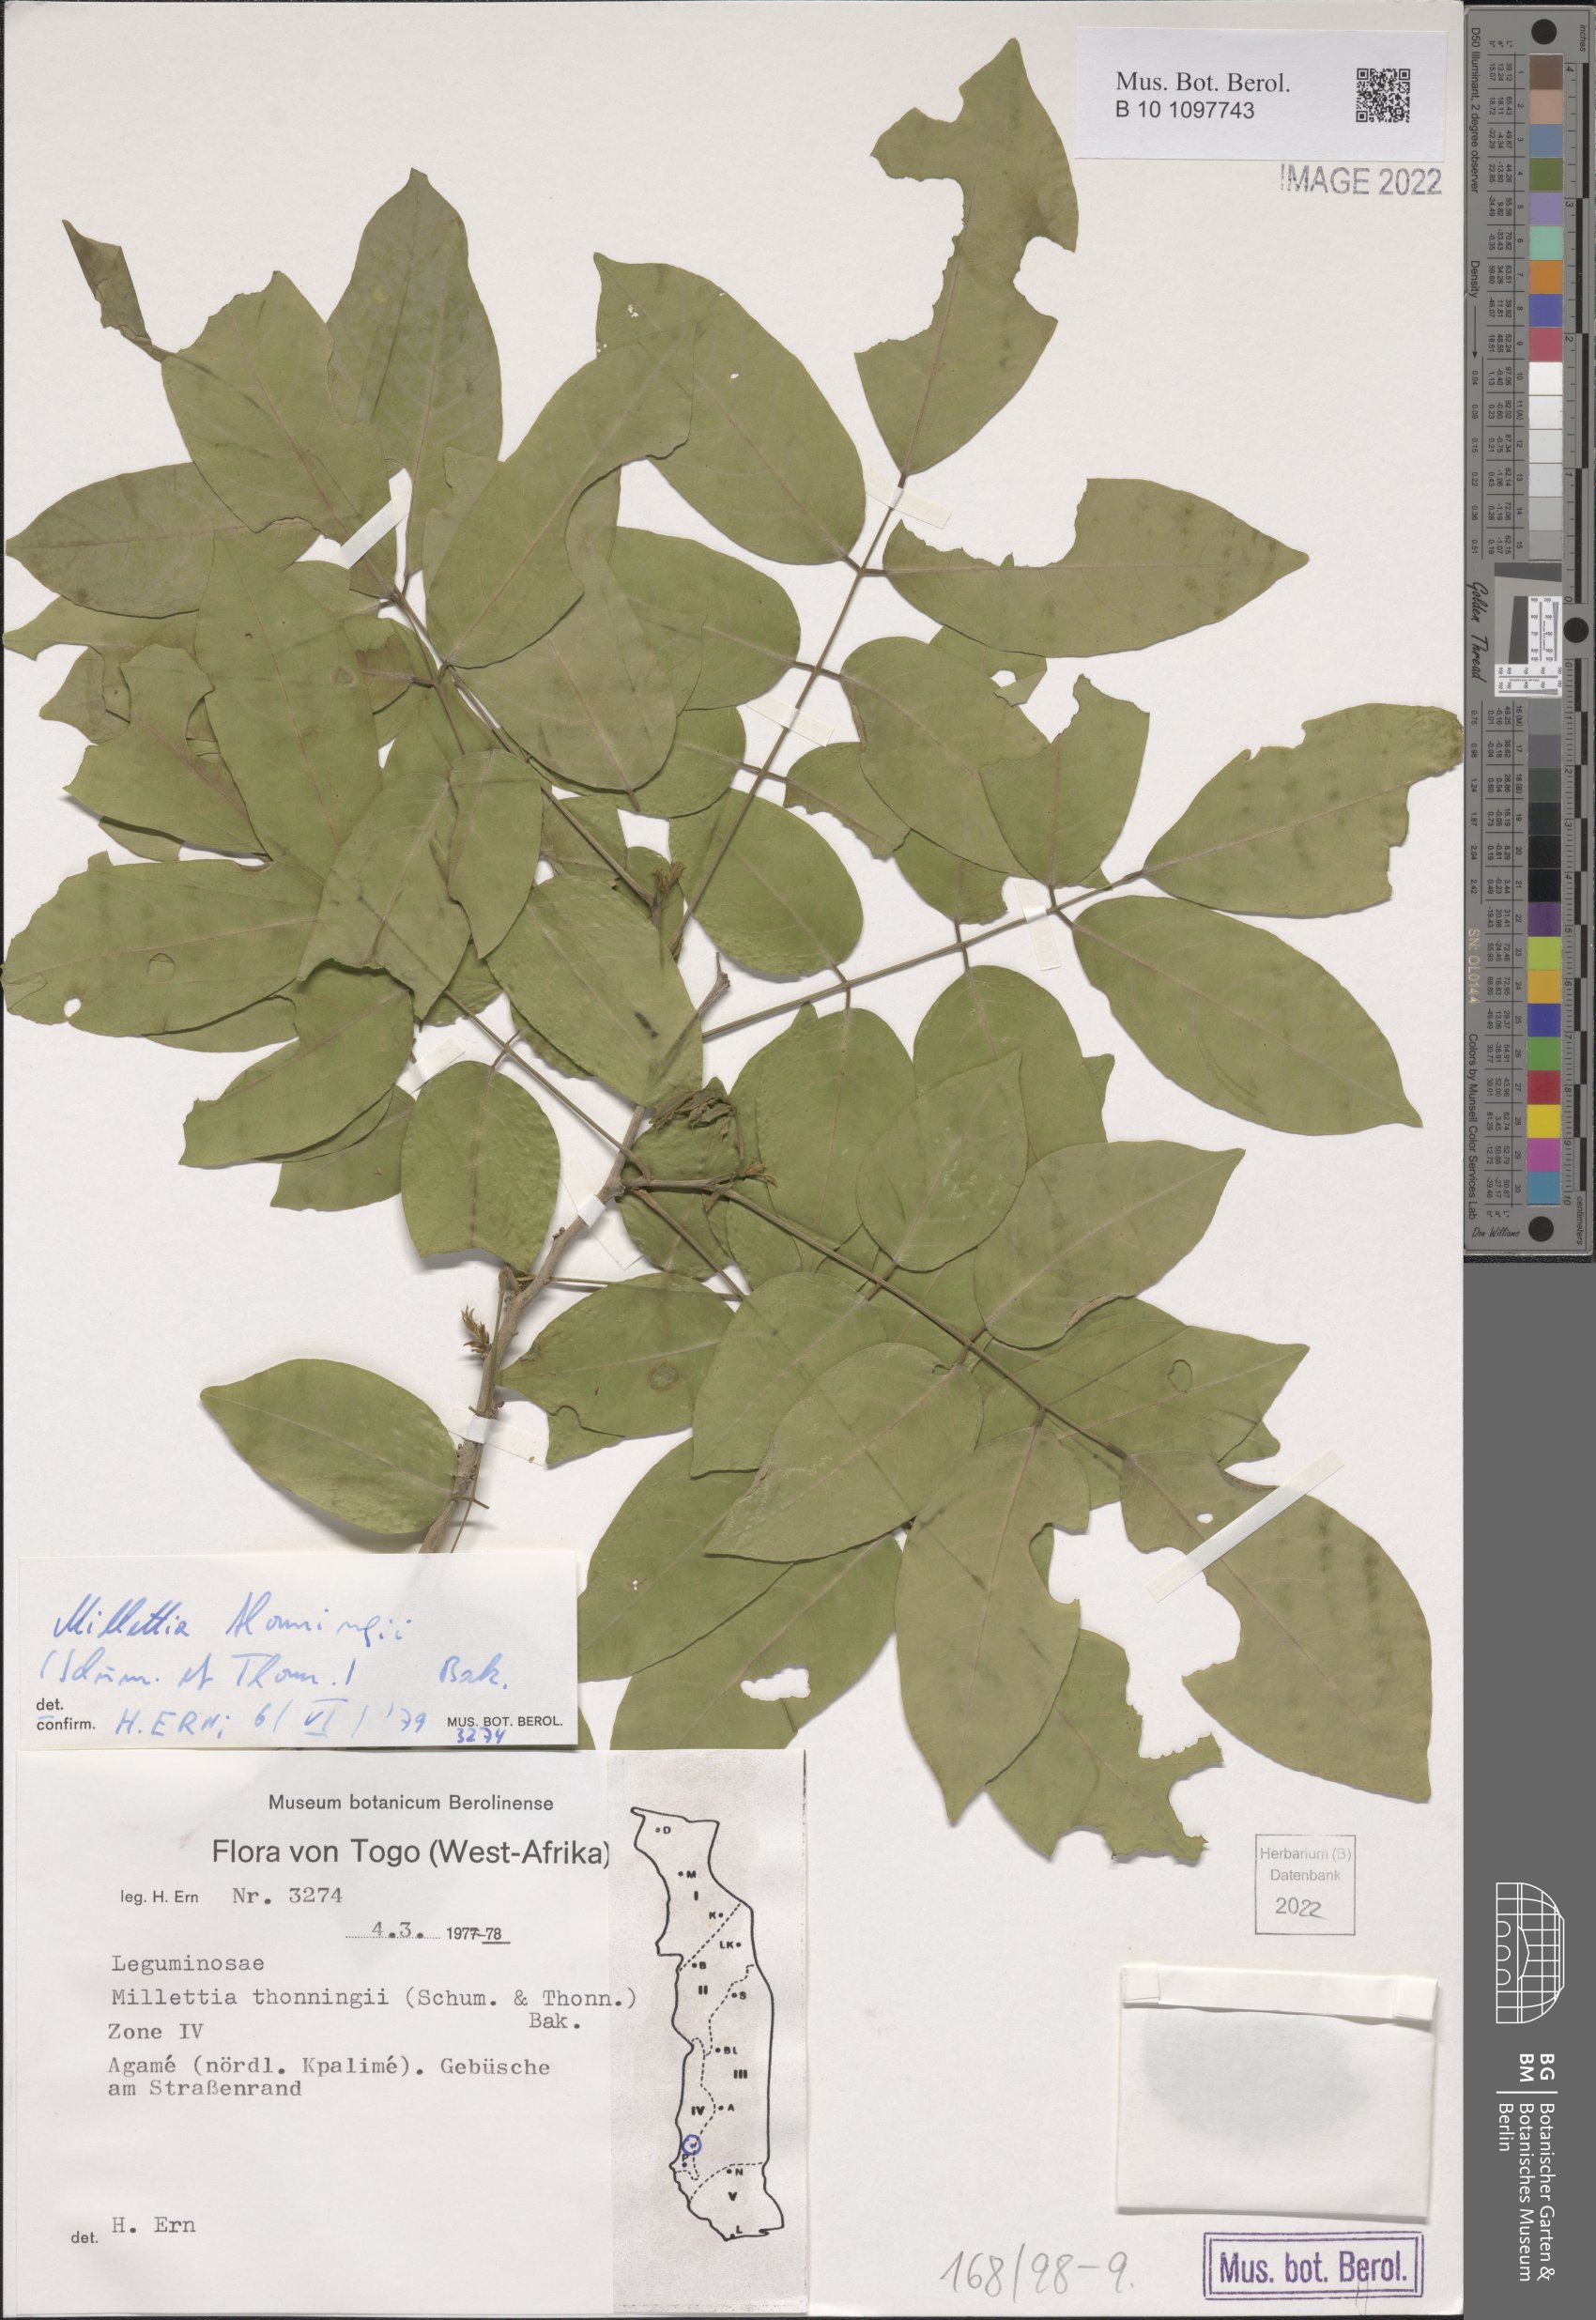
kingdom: Plantae
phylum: Tracheophyta
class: Magnoliopsida
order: Fabales
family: Fabaceae
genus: Millettia
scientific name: Millettia thonningii
